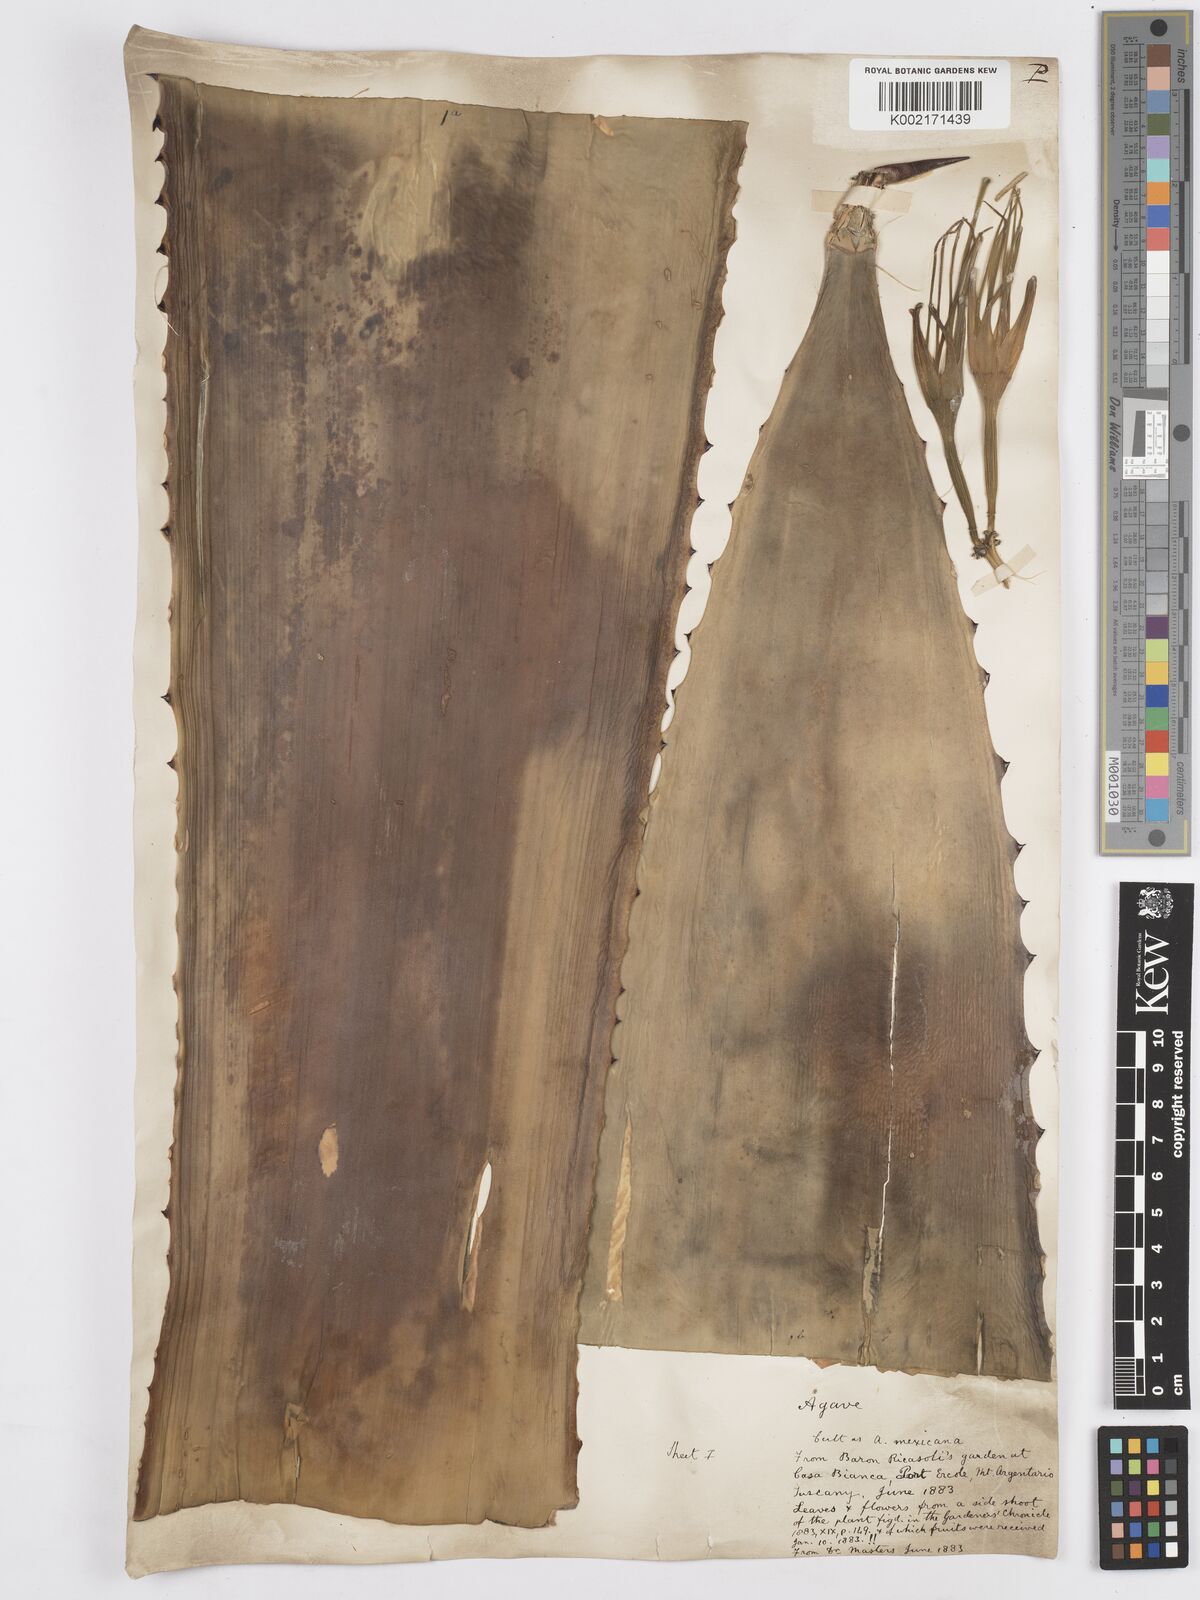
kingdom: Plantae
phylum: Tracheophyta
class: Liliopsida
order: Asparagales
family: Asparagaceae
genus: Agave
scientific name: Agave
